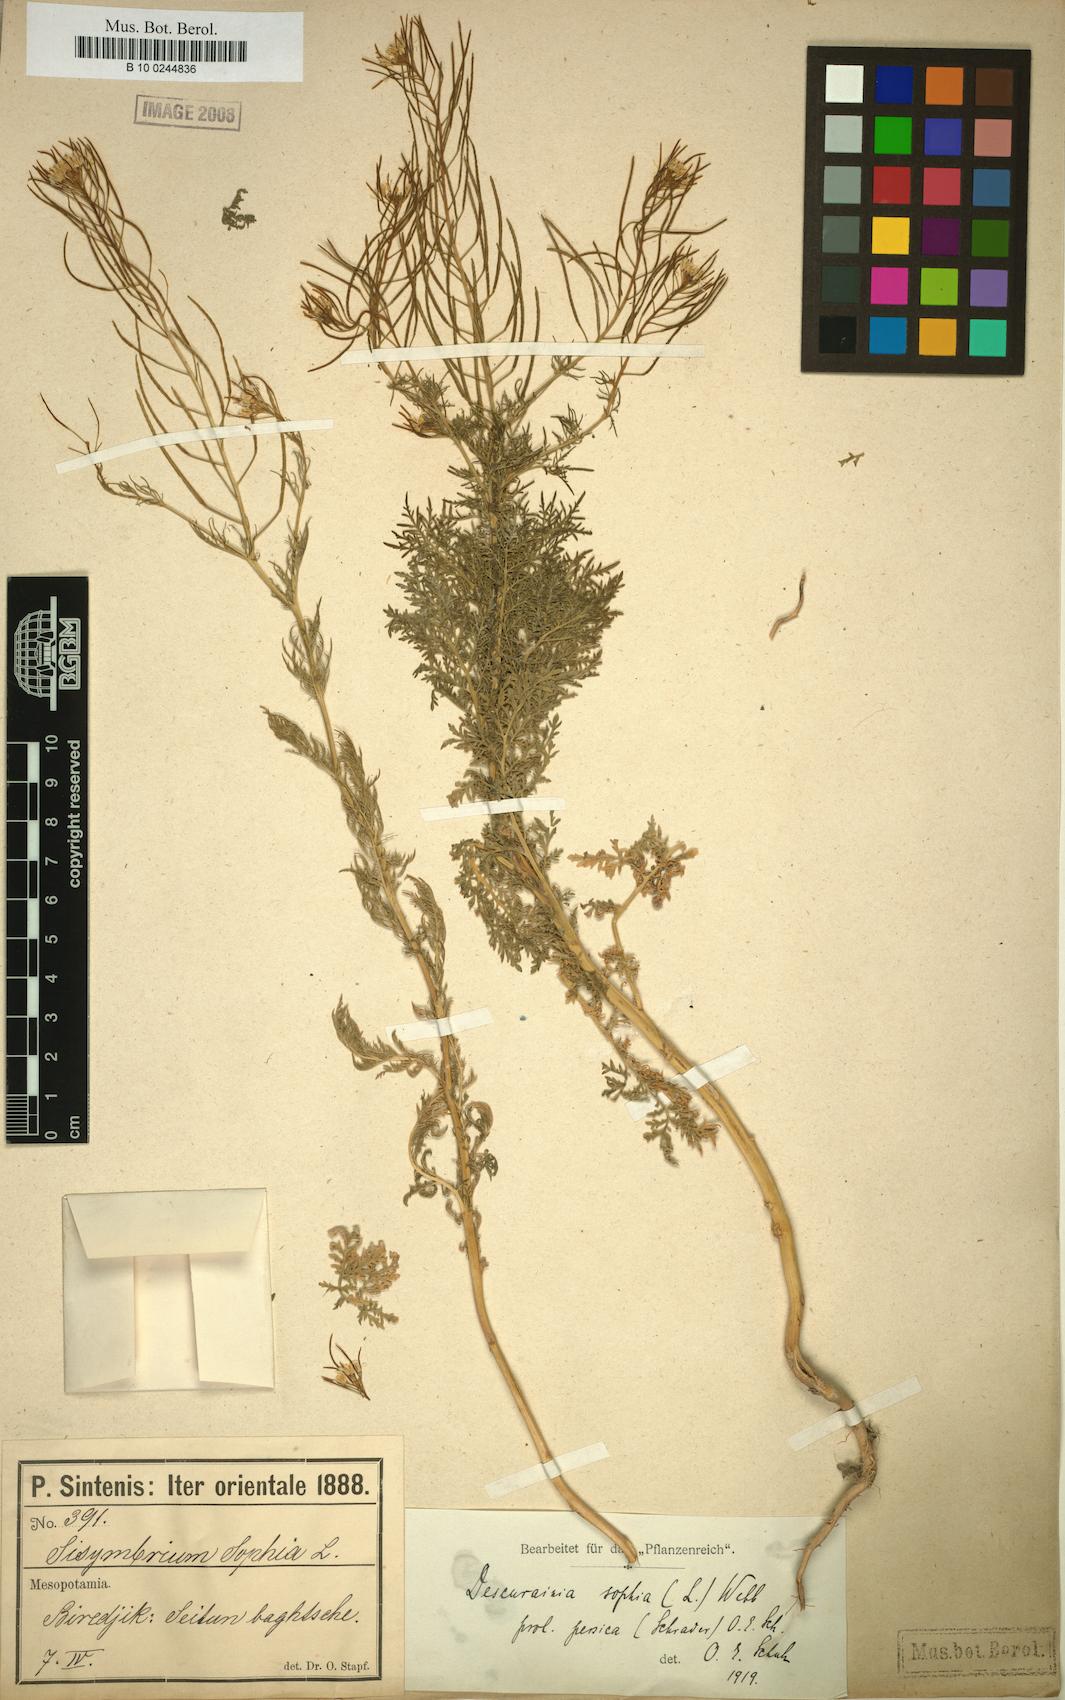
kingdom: Plantae
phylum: Tracheophyta
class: Magnoliopsida
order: Brassicales
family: Brassicaceae
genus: Descurainia
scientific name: Descurainia sophia
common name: Flixweed
